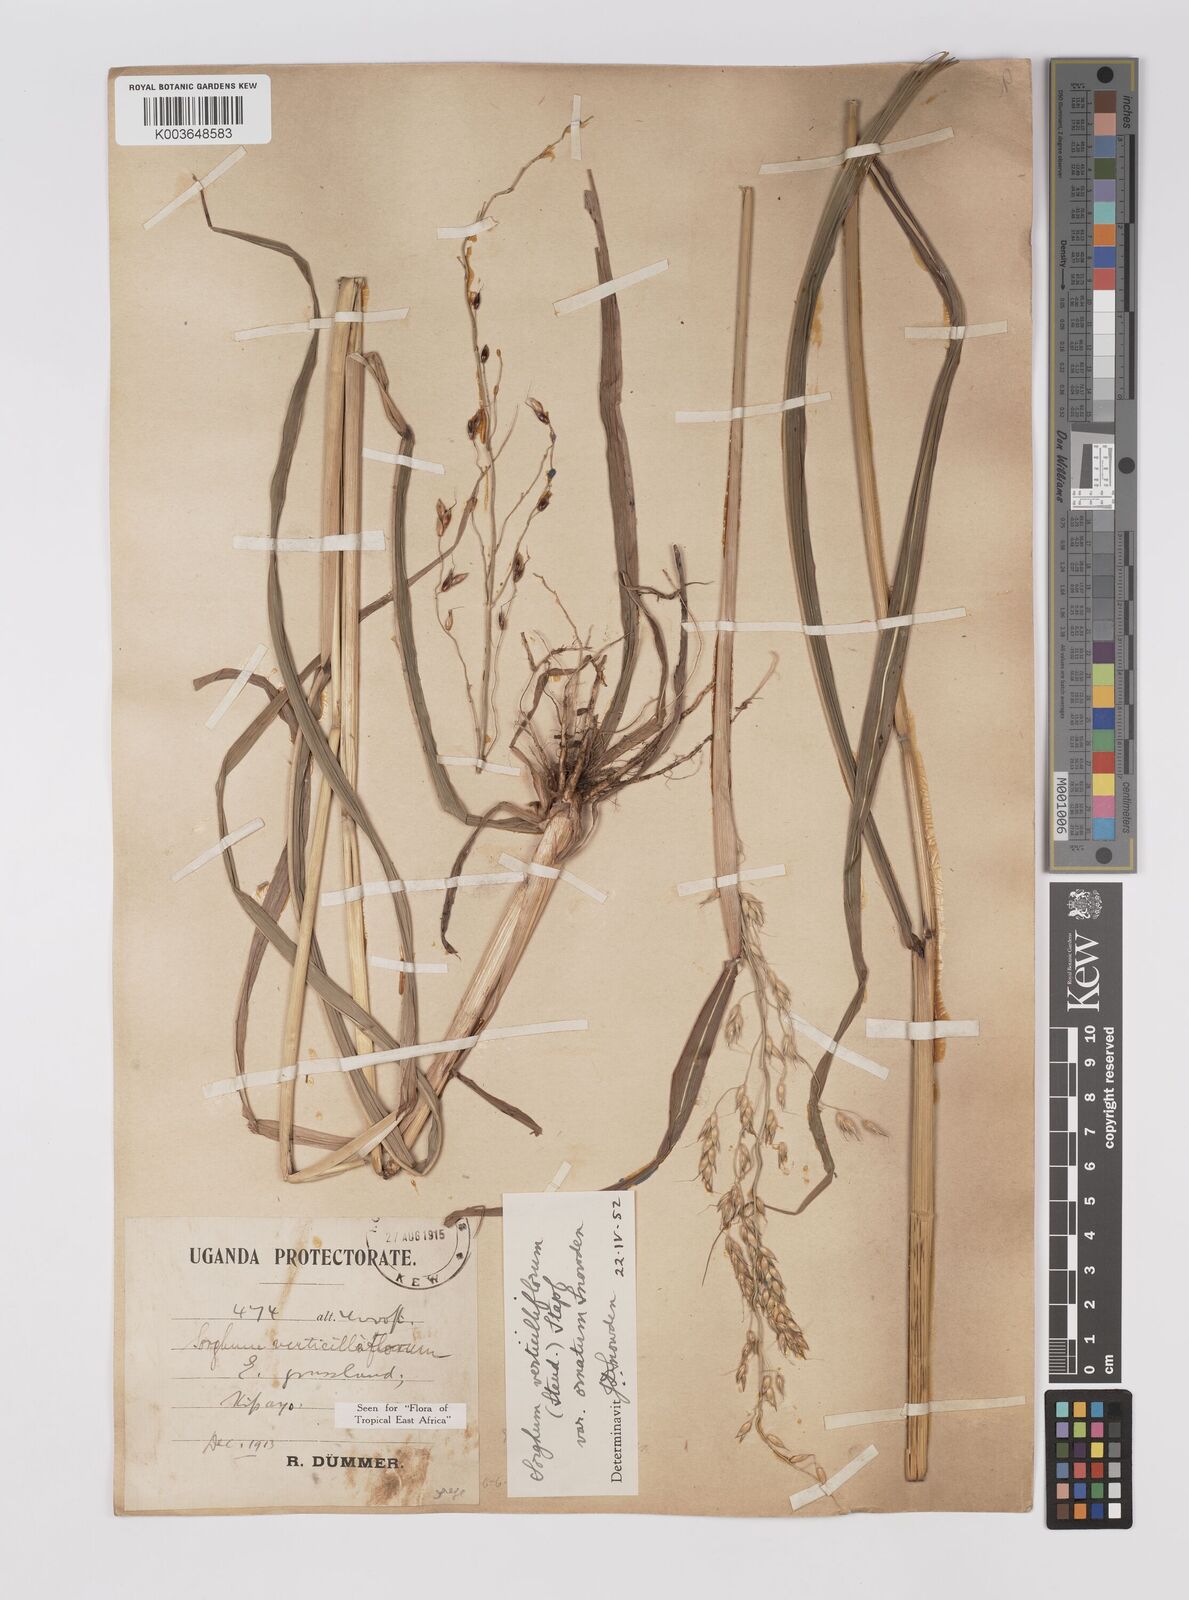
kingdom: Plantae
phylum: Tracheophyta
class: Liliopsida
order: Poales
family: Poaceae
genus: Sorghum
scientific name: Sorghum arundinaceum
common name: Sorghum
